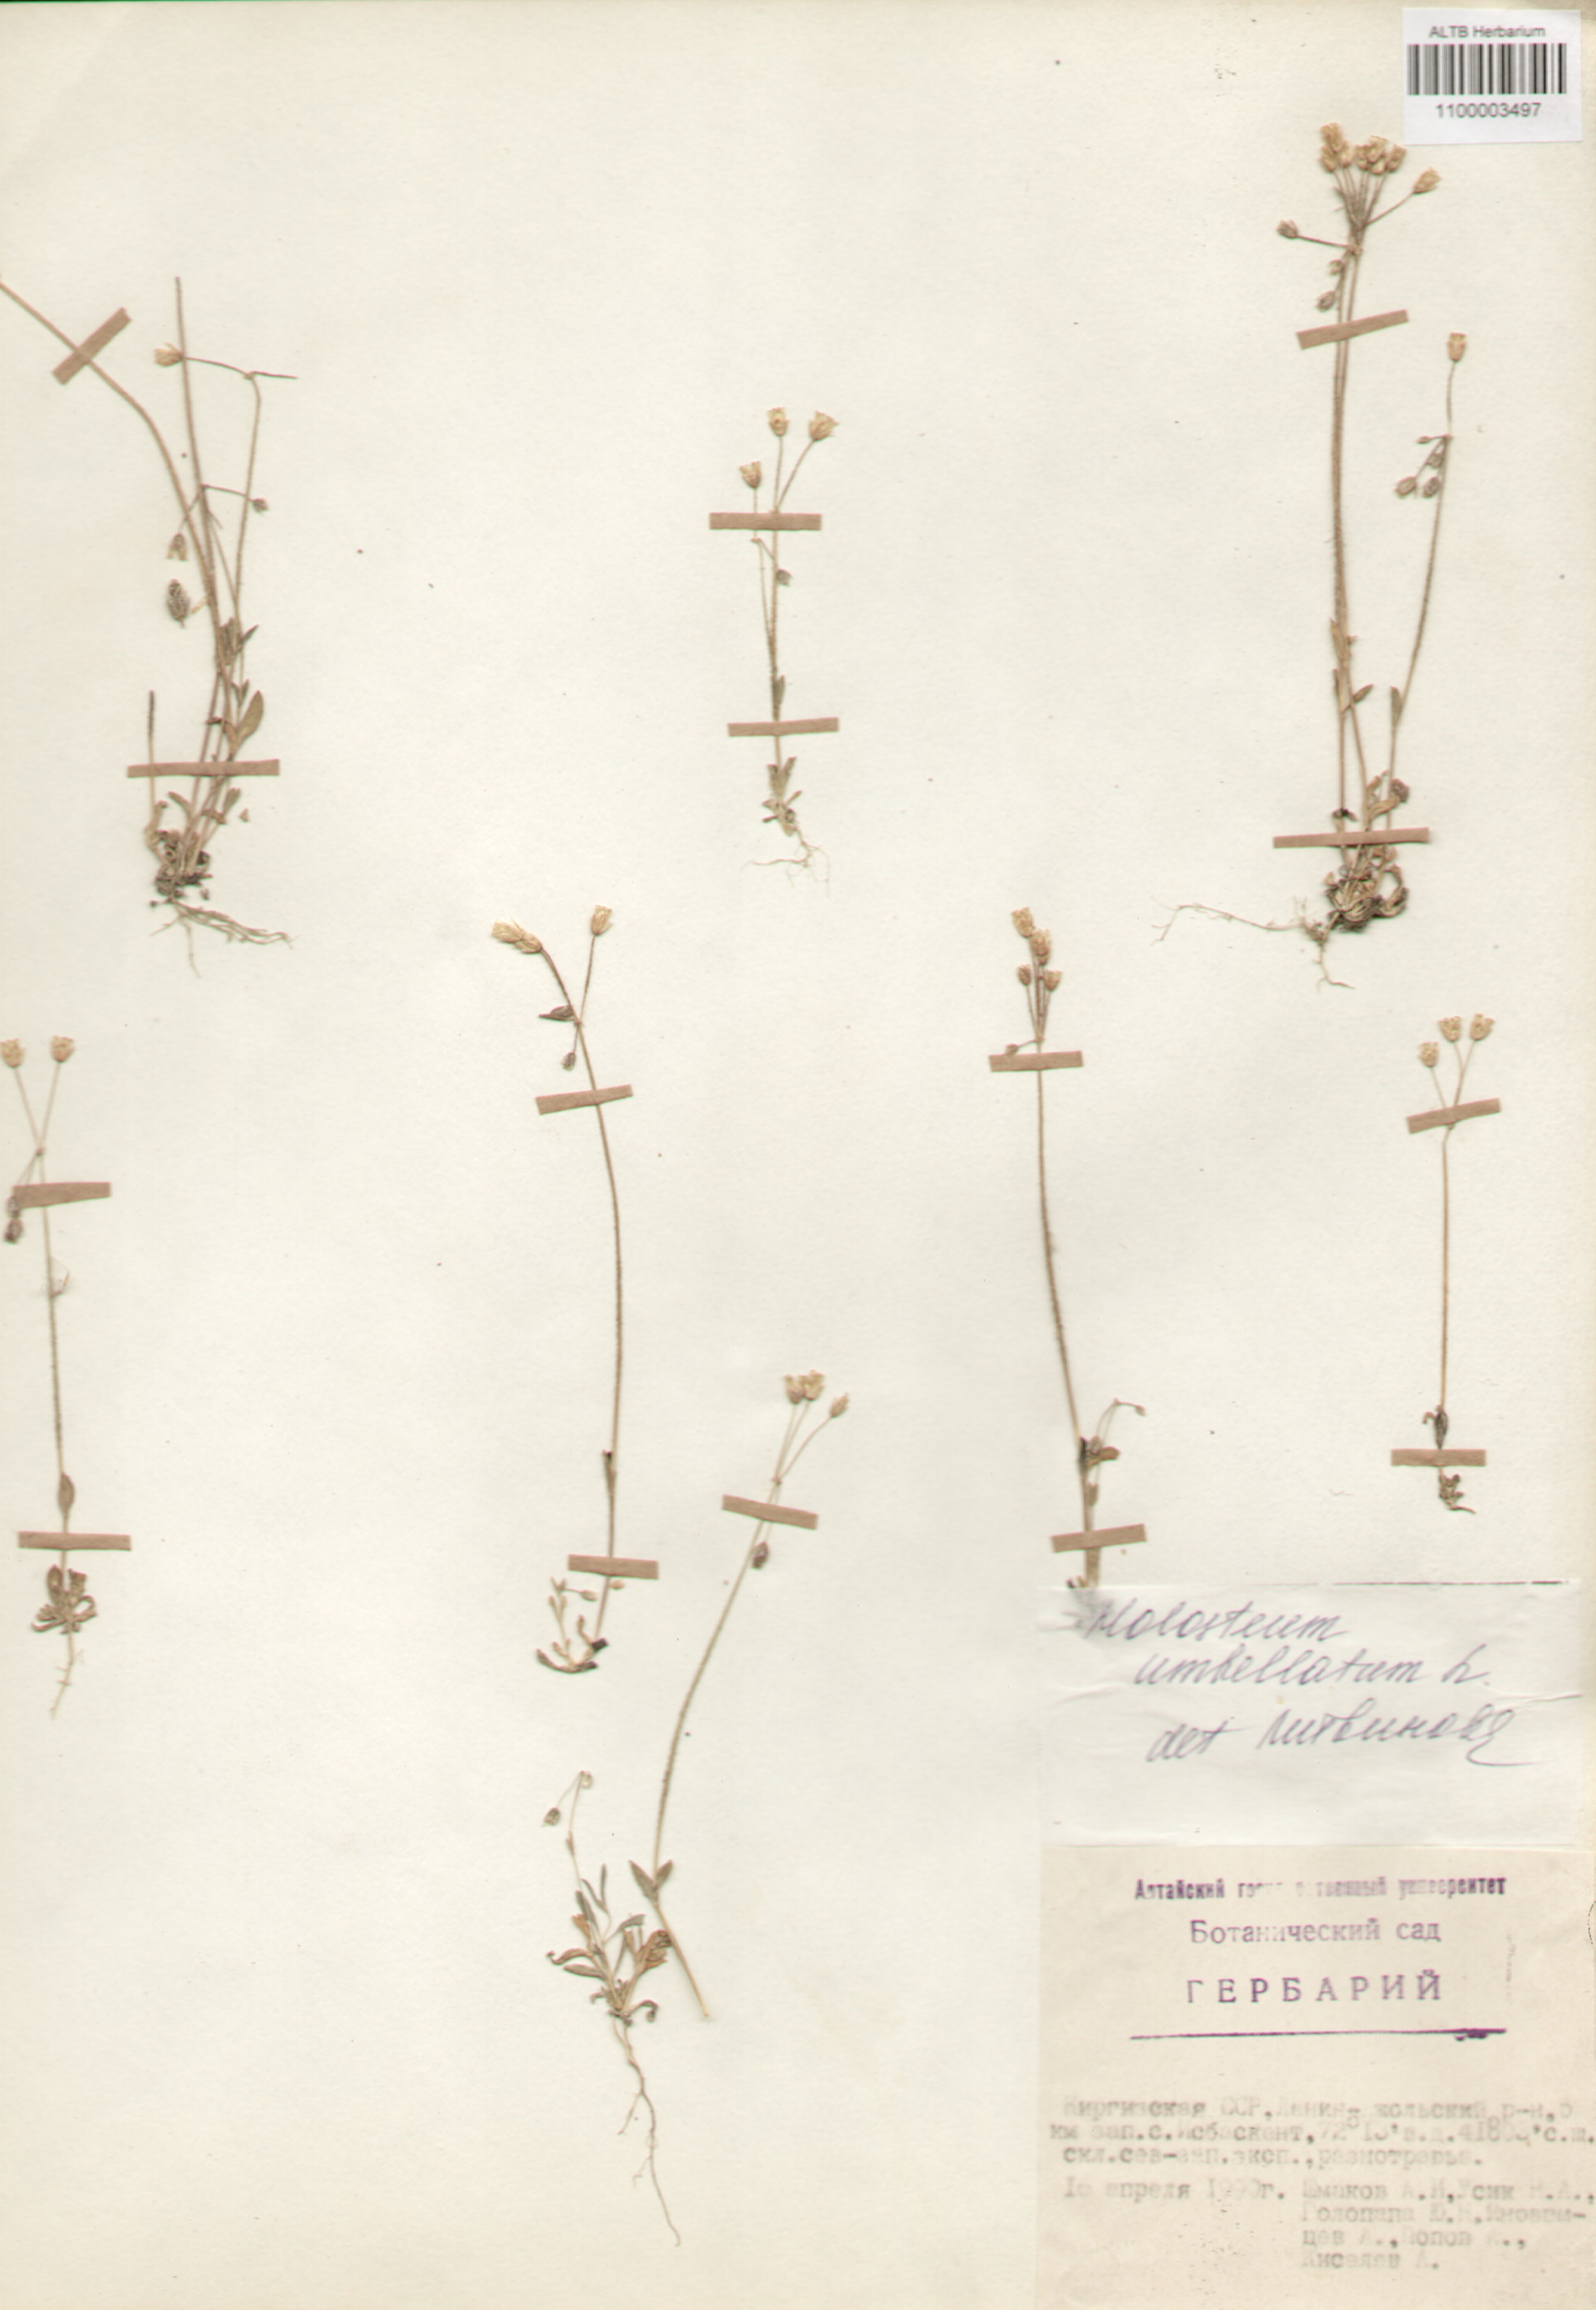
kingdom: Plantae
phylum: Tracheophyta
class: Magnoliopsida
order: Caryophyllales
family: Caryophyllaceae
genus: Holosteum
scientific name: Holosteum umbellatum
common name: Jagged chickweed
